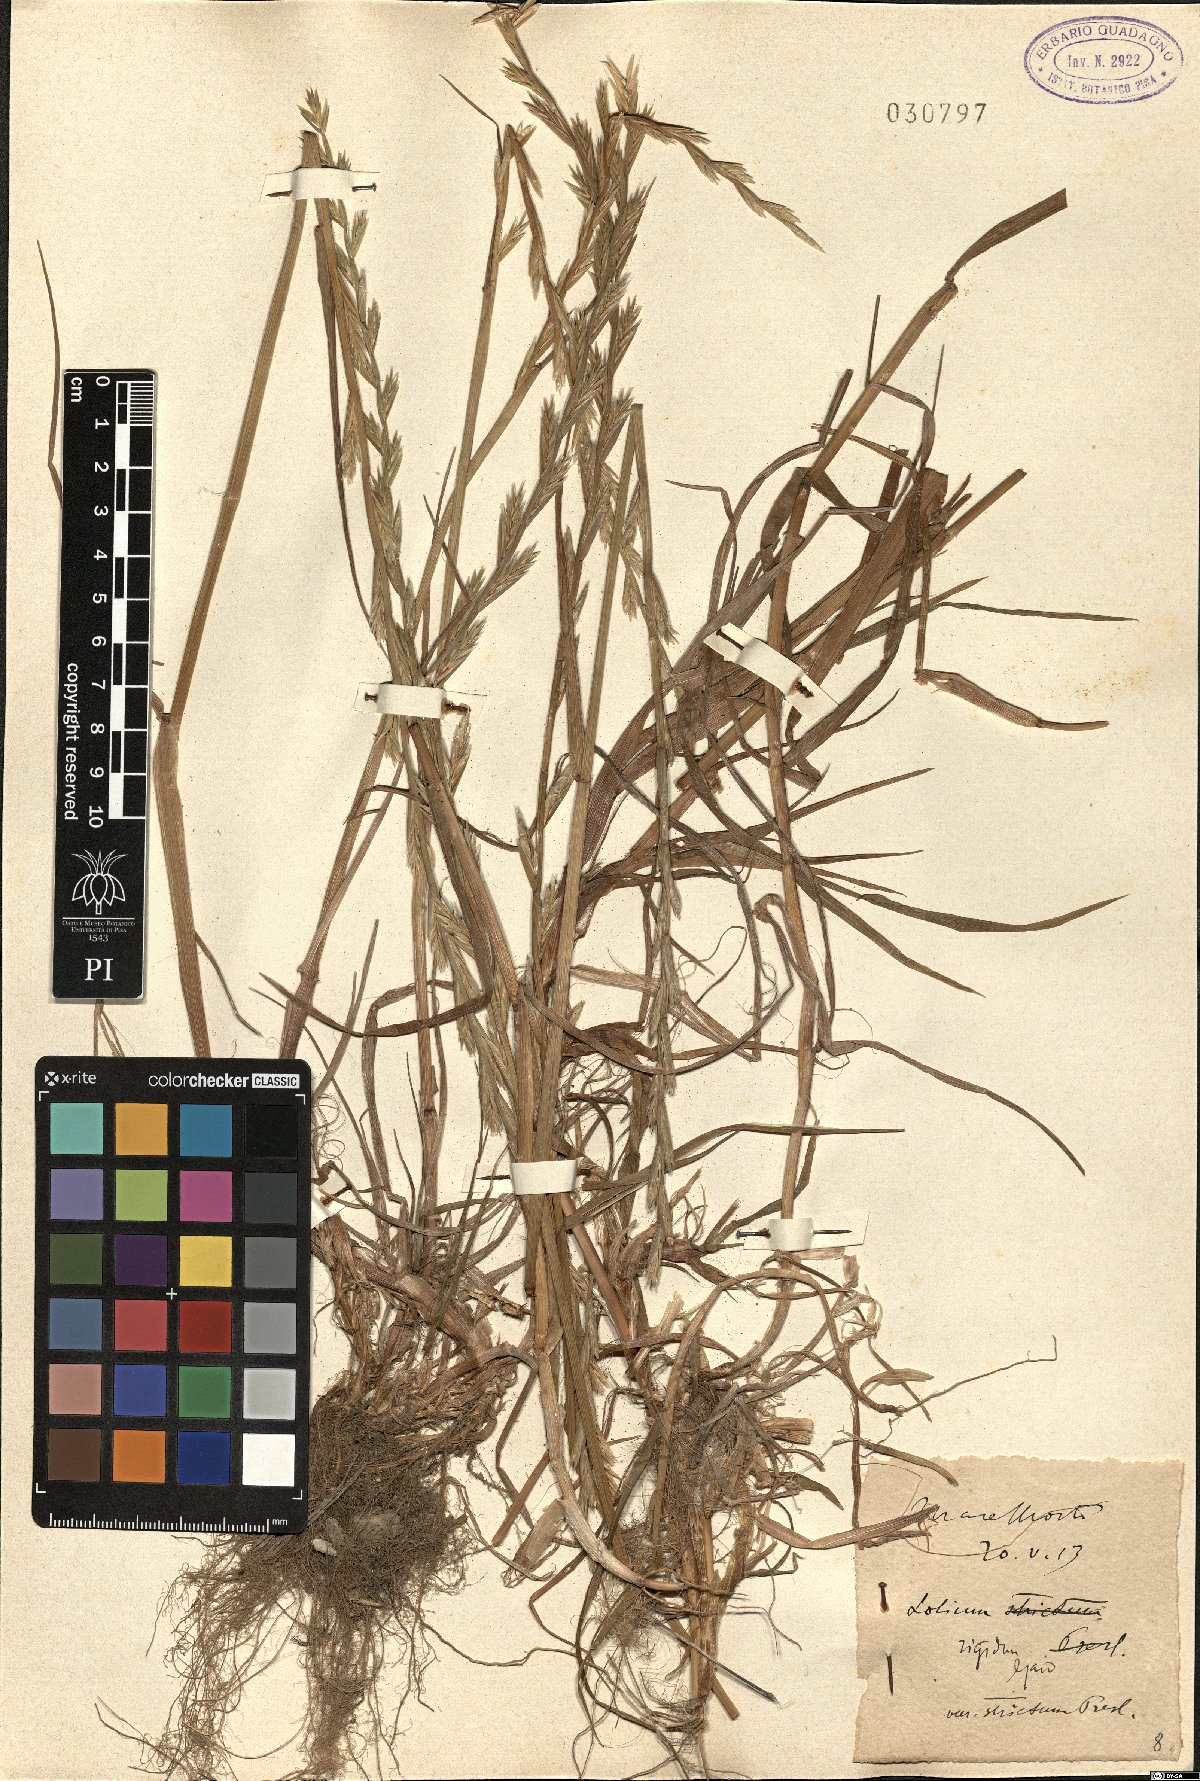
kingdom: Plantae
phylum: Tracheophyta
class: Liliopsida
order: Poales
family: Poaceae
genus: Lolium
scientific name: Lolium rigidum
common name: Wimmera ryegrass
